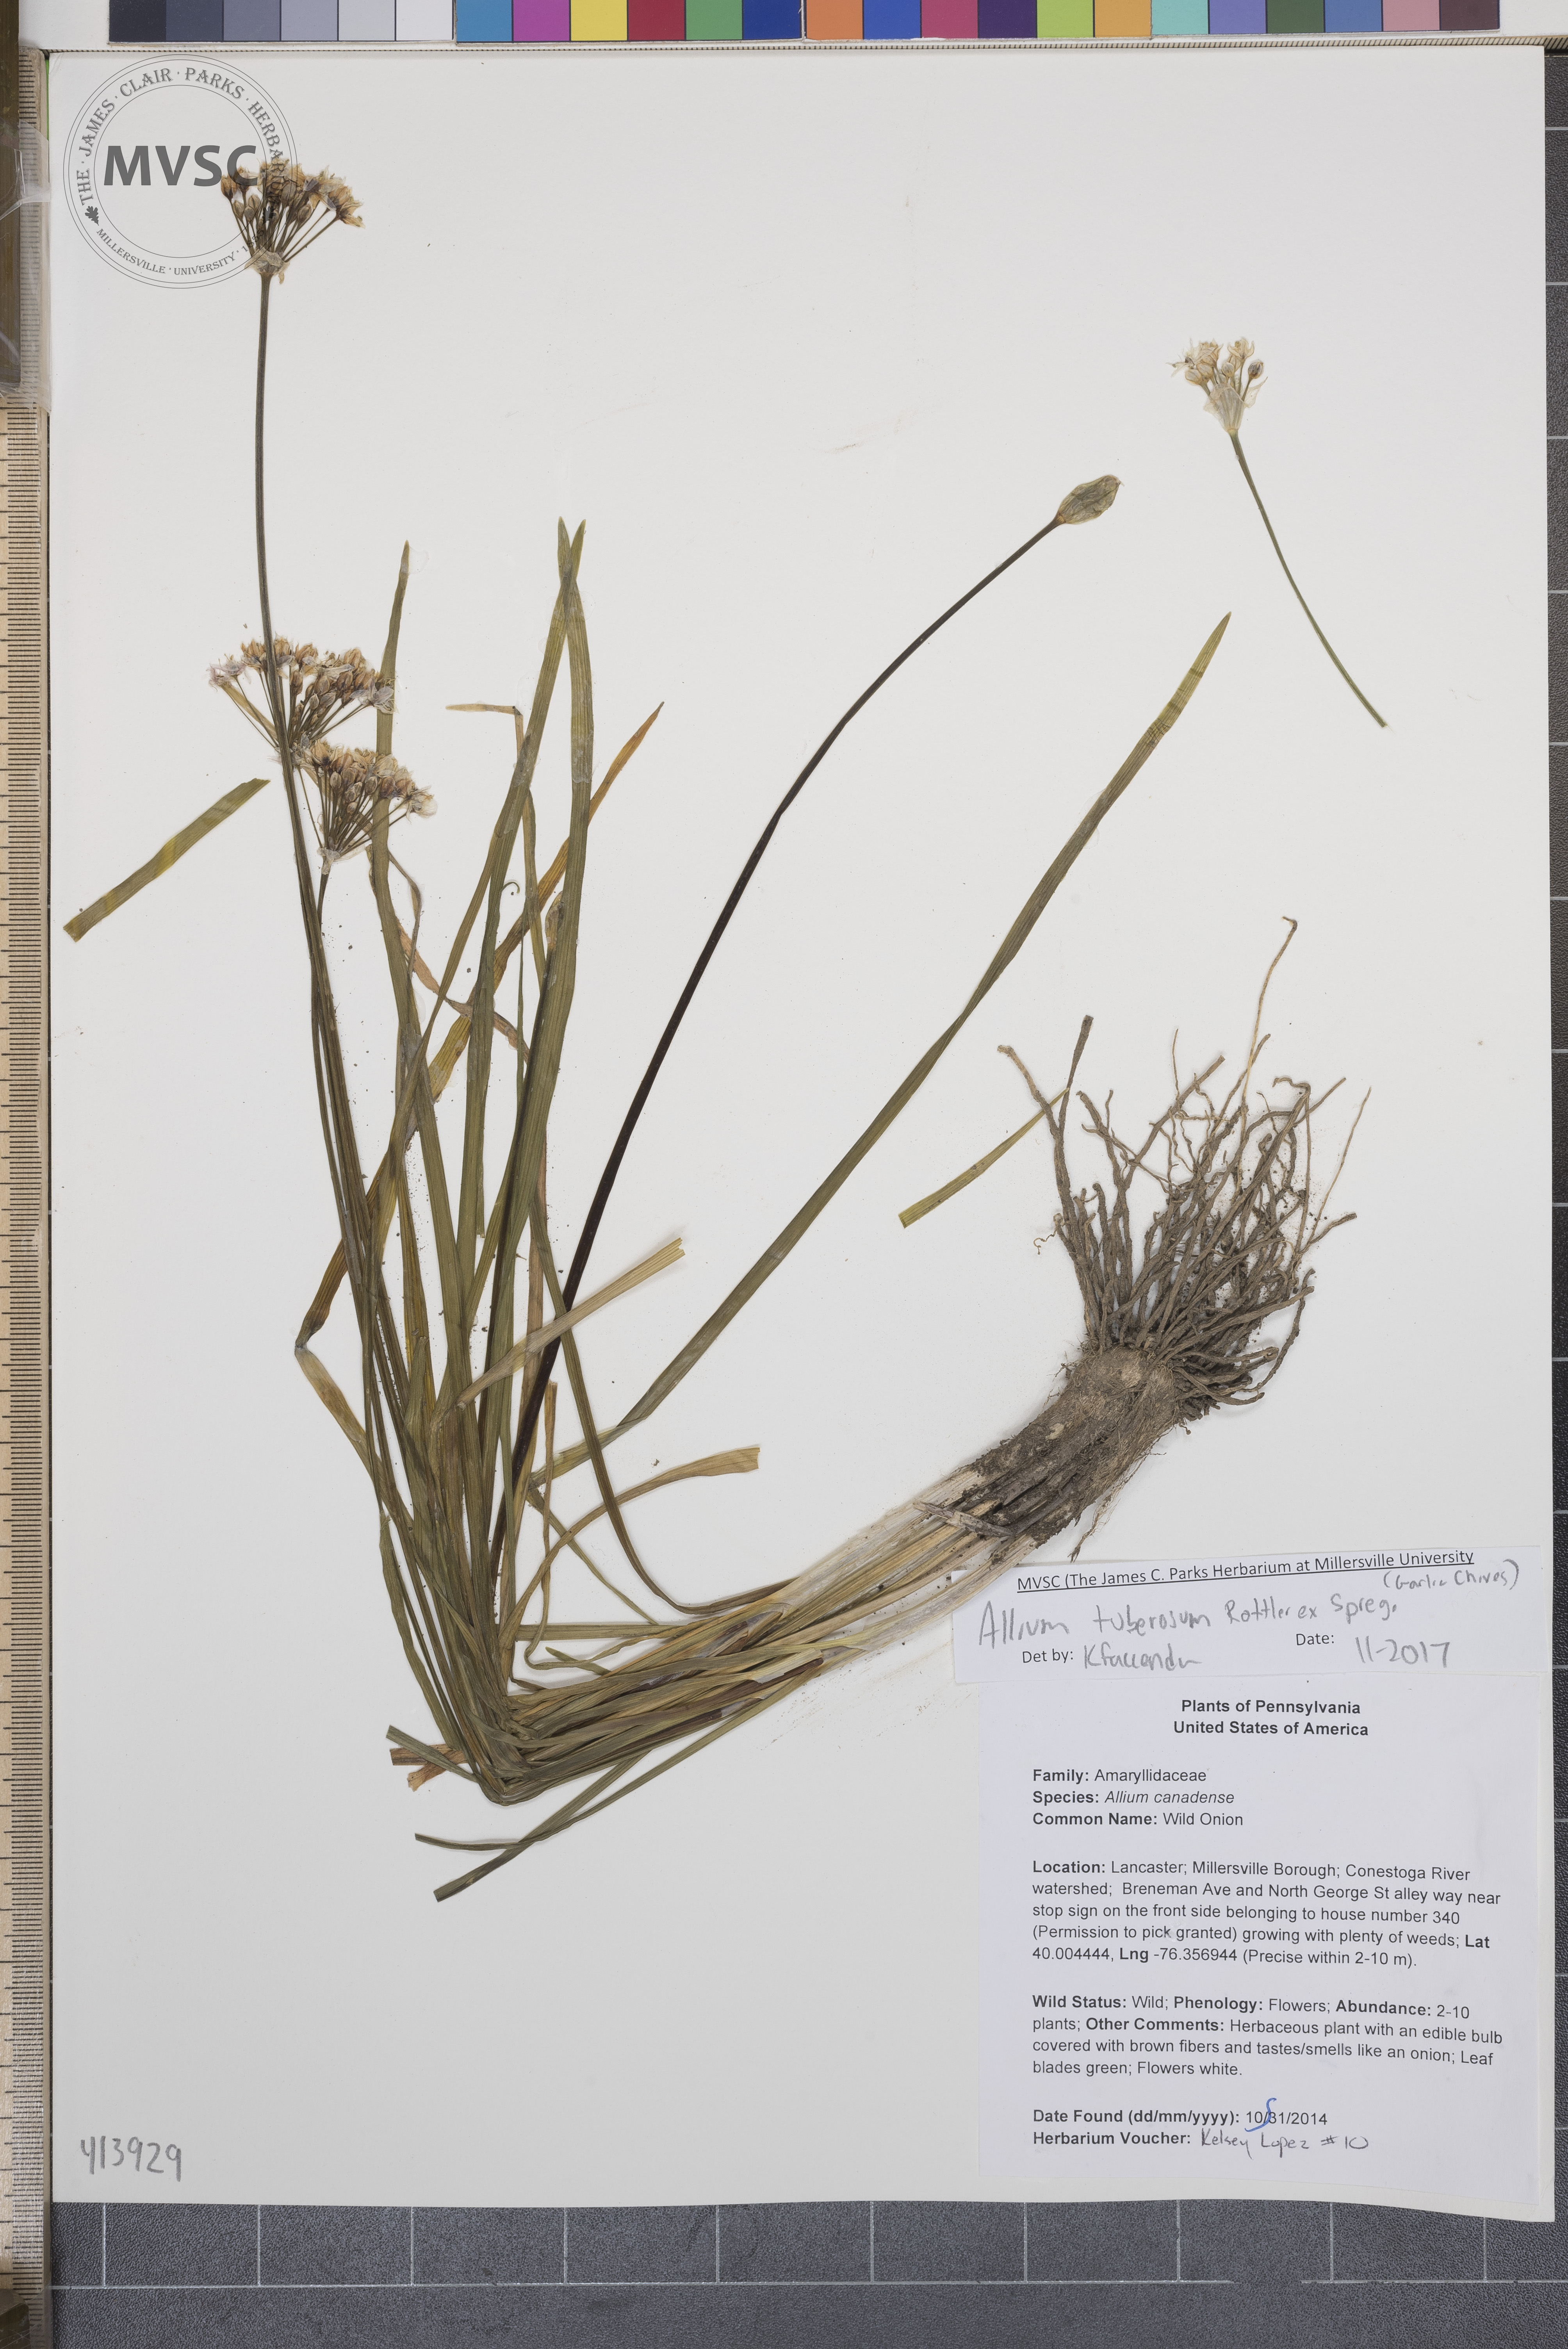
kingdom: Plantae
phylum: Tracheophyta
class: Liliopsida
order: Asparagales
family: Amaryllidaceae
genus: Allium
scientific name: Allium tuberosum
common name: Garlic chives
